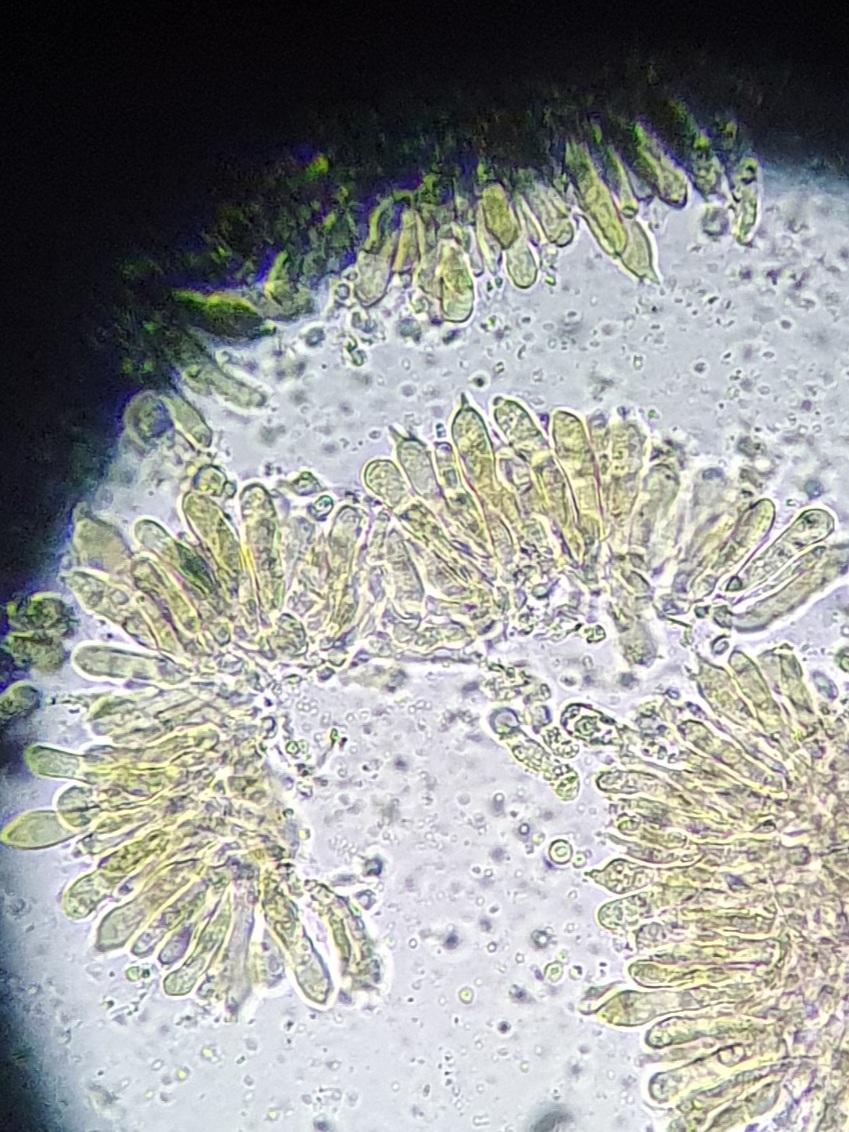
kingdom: Fungi
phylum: Basidiomycota
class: Agaricomycetes
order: Agaricales
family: Mycenaceae
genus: Mycena
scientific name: Mycena silvae-nigrae
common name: tidlig huesvamp
